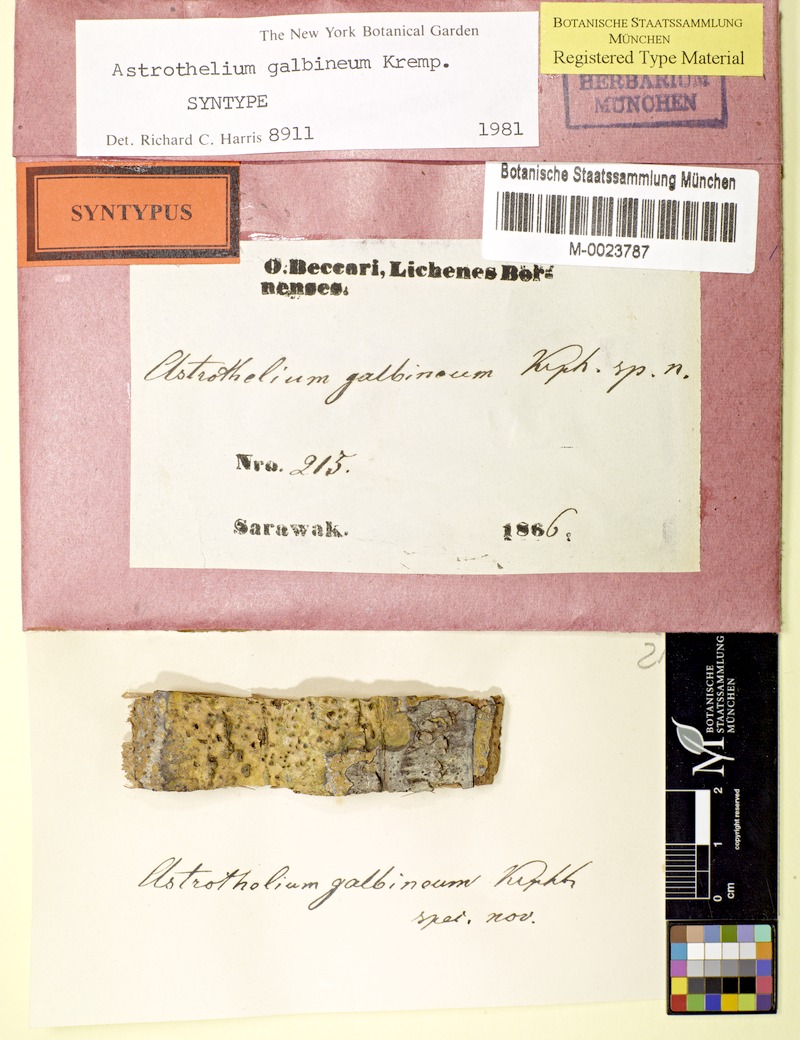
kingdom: Fungi
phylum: Ascomycota
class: Dothideomycetes
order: Trypetheliales
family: Trypetheliaceae
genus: Astrothelium
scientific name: Astrothelium galbineum
